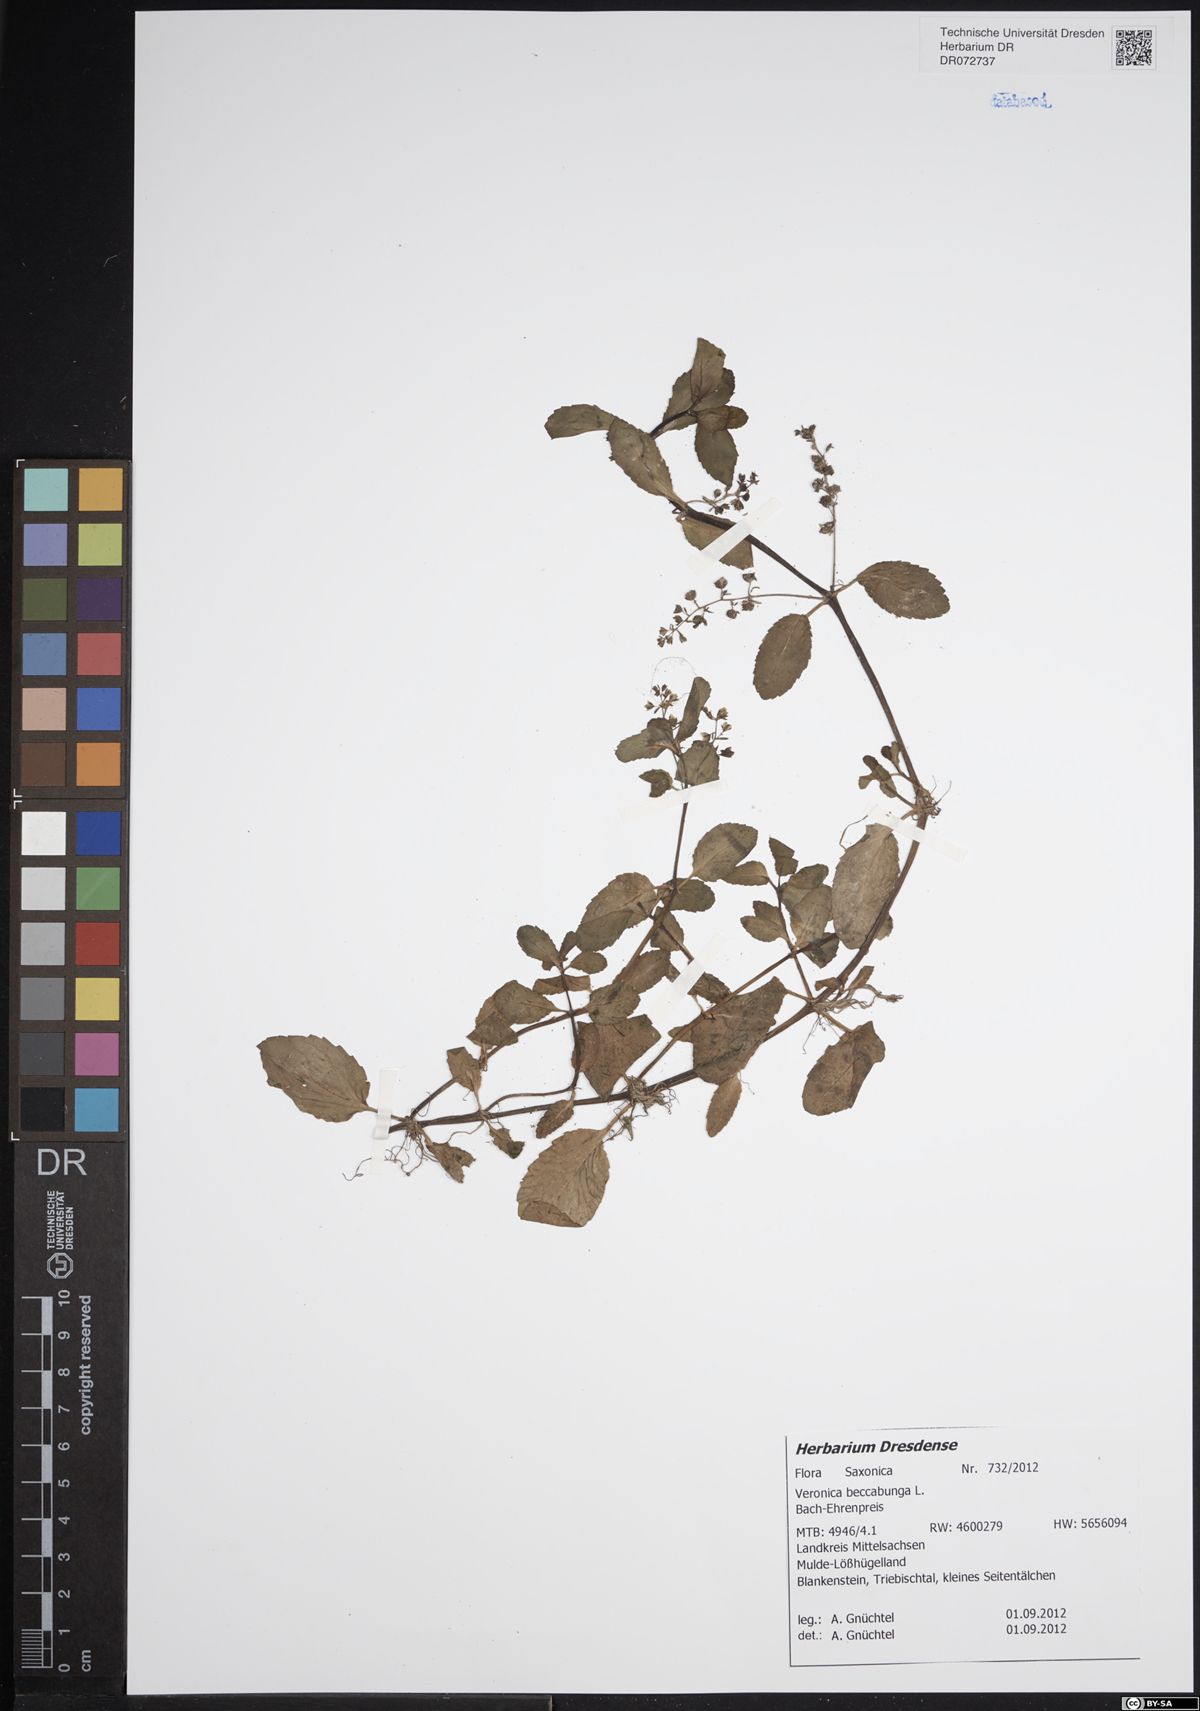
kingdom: Plantae
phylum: Tracheophyta
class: Magnoliopsida
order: Lamiales
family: Plantaginaceae
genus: Veronica
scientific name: Veronica beccabunga
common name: Brooklime
